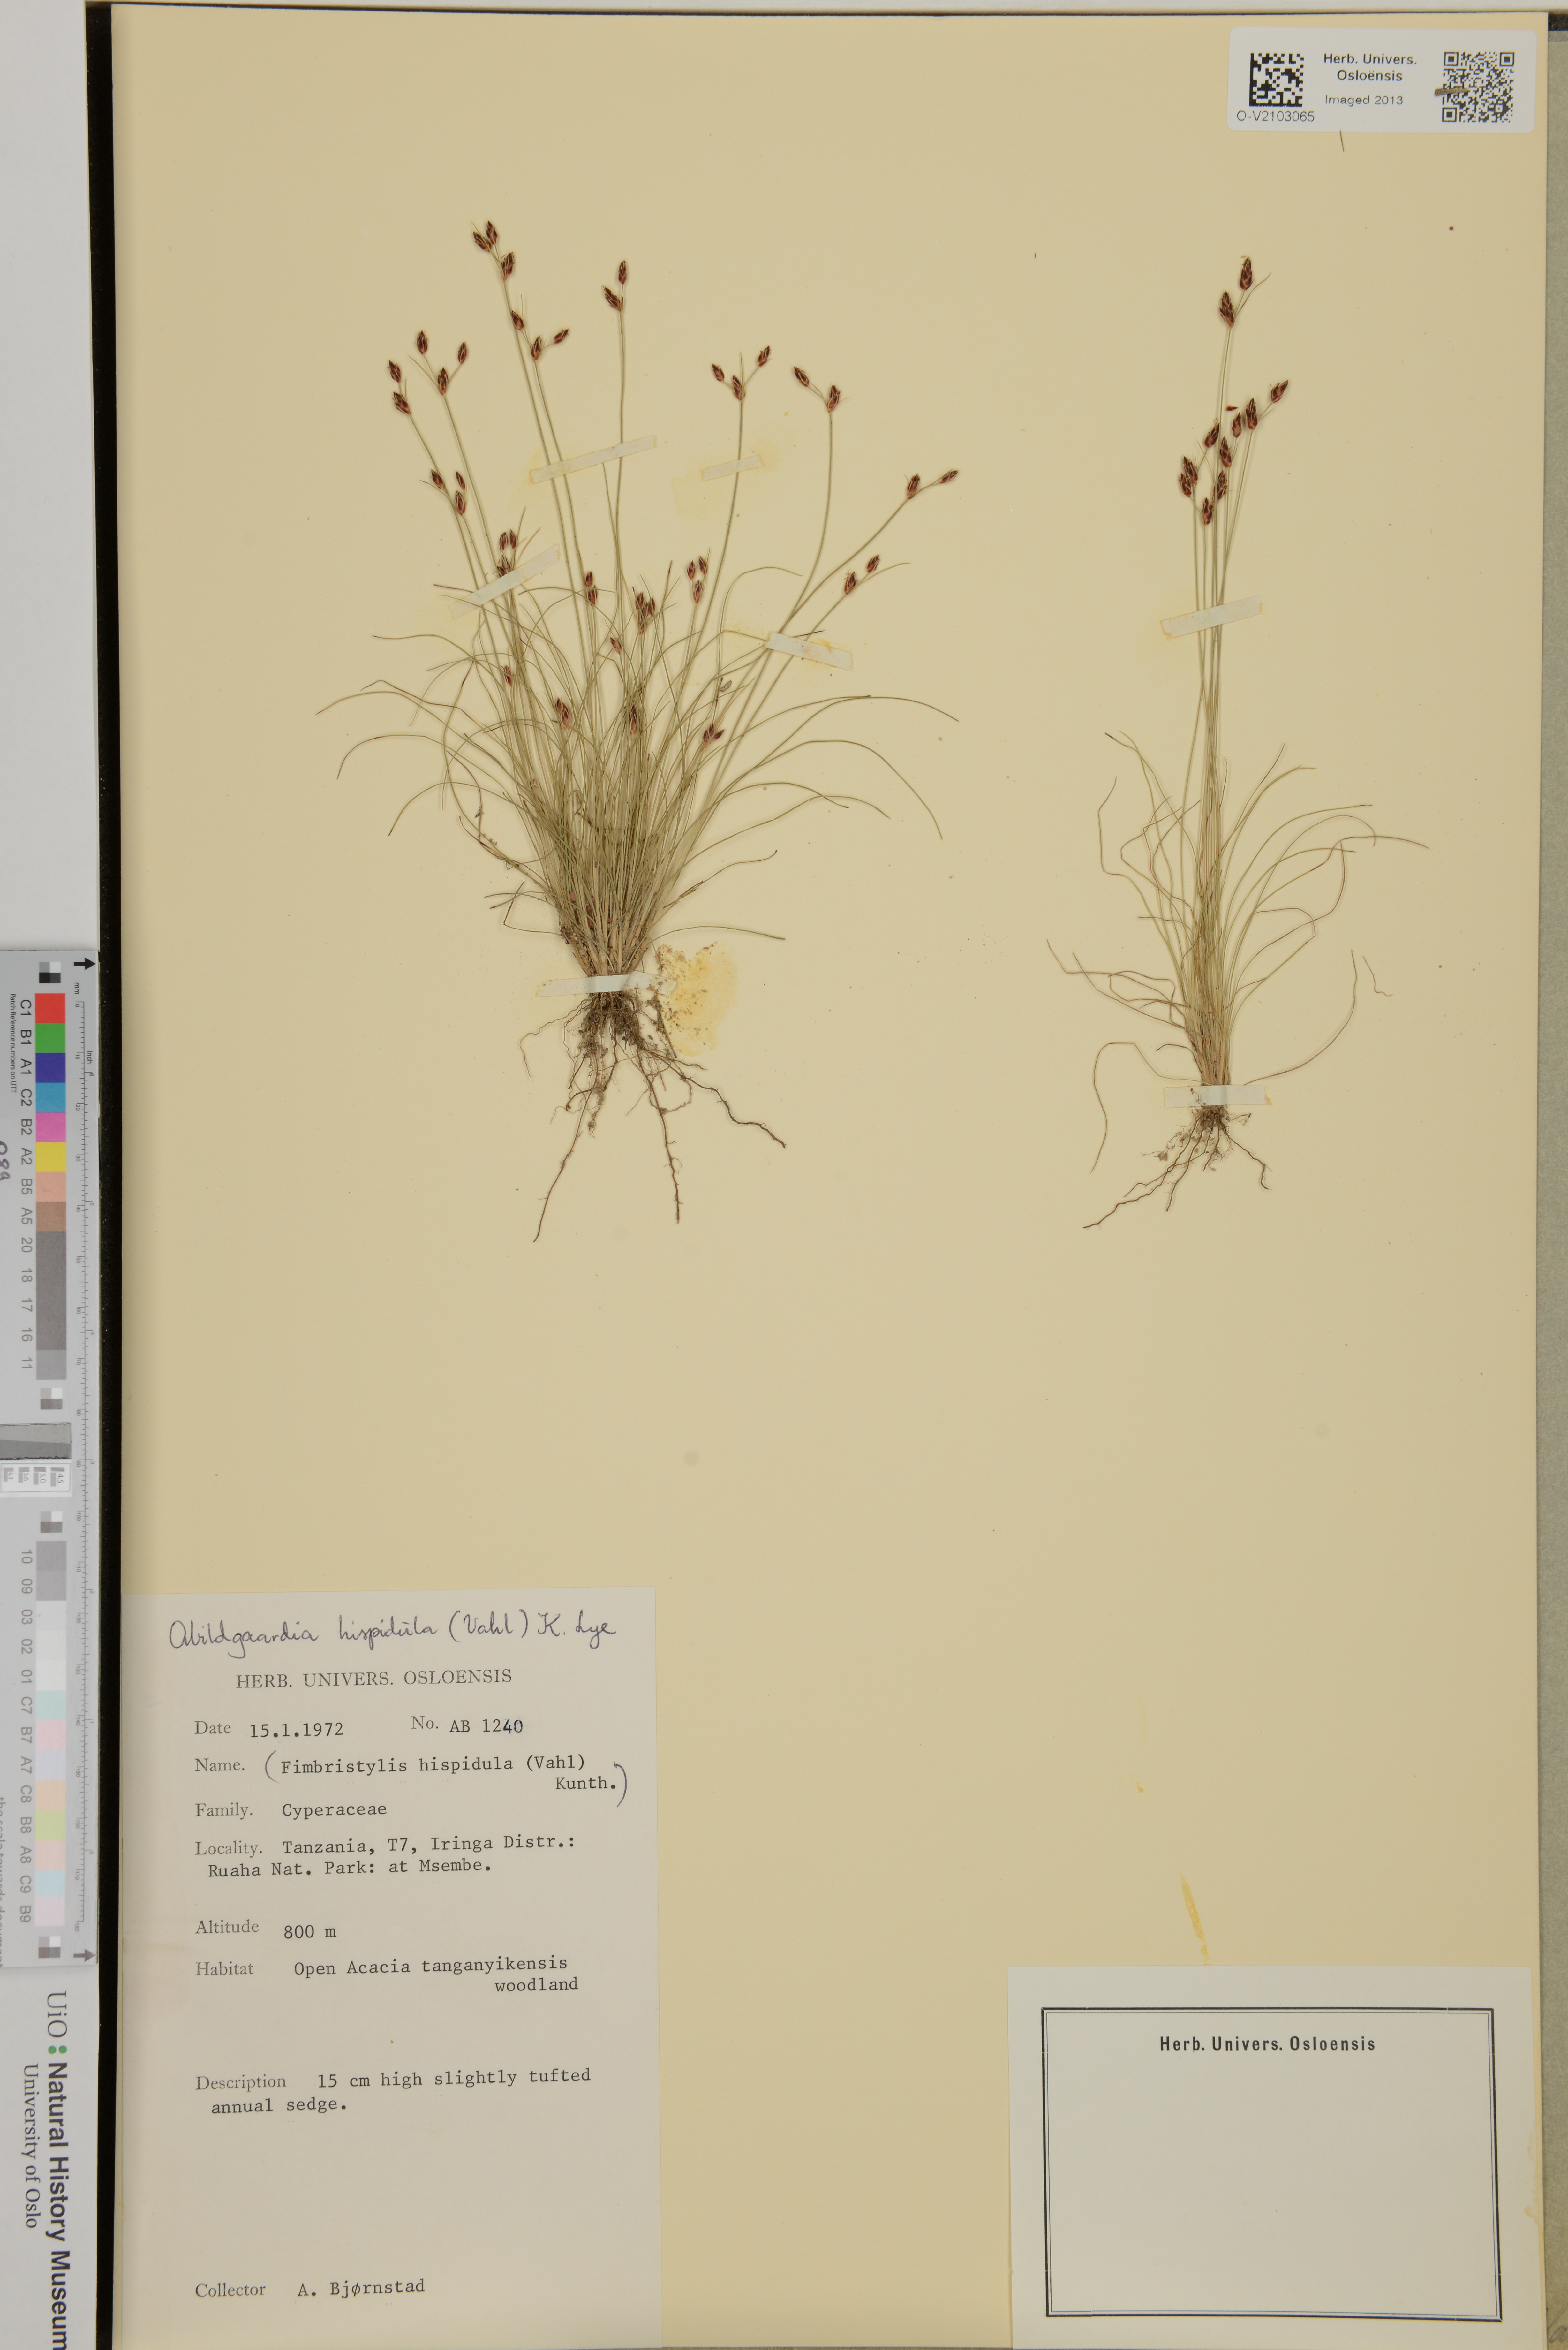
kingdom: Plantae
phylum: Tracheophyta
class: Liliopsida
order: Poales
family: Cyperaceae
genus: Bulbostylis
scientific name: Bulbostylis hispidula
